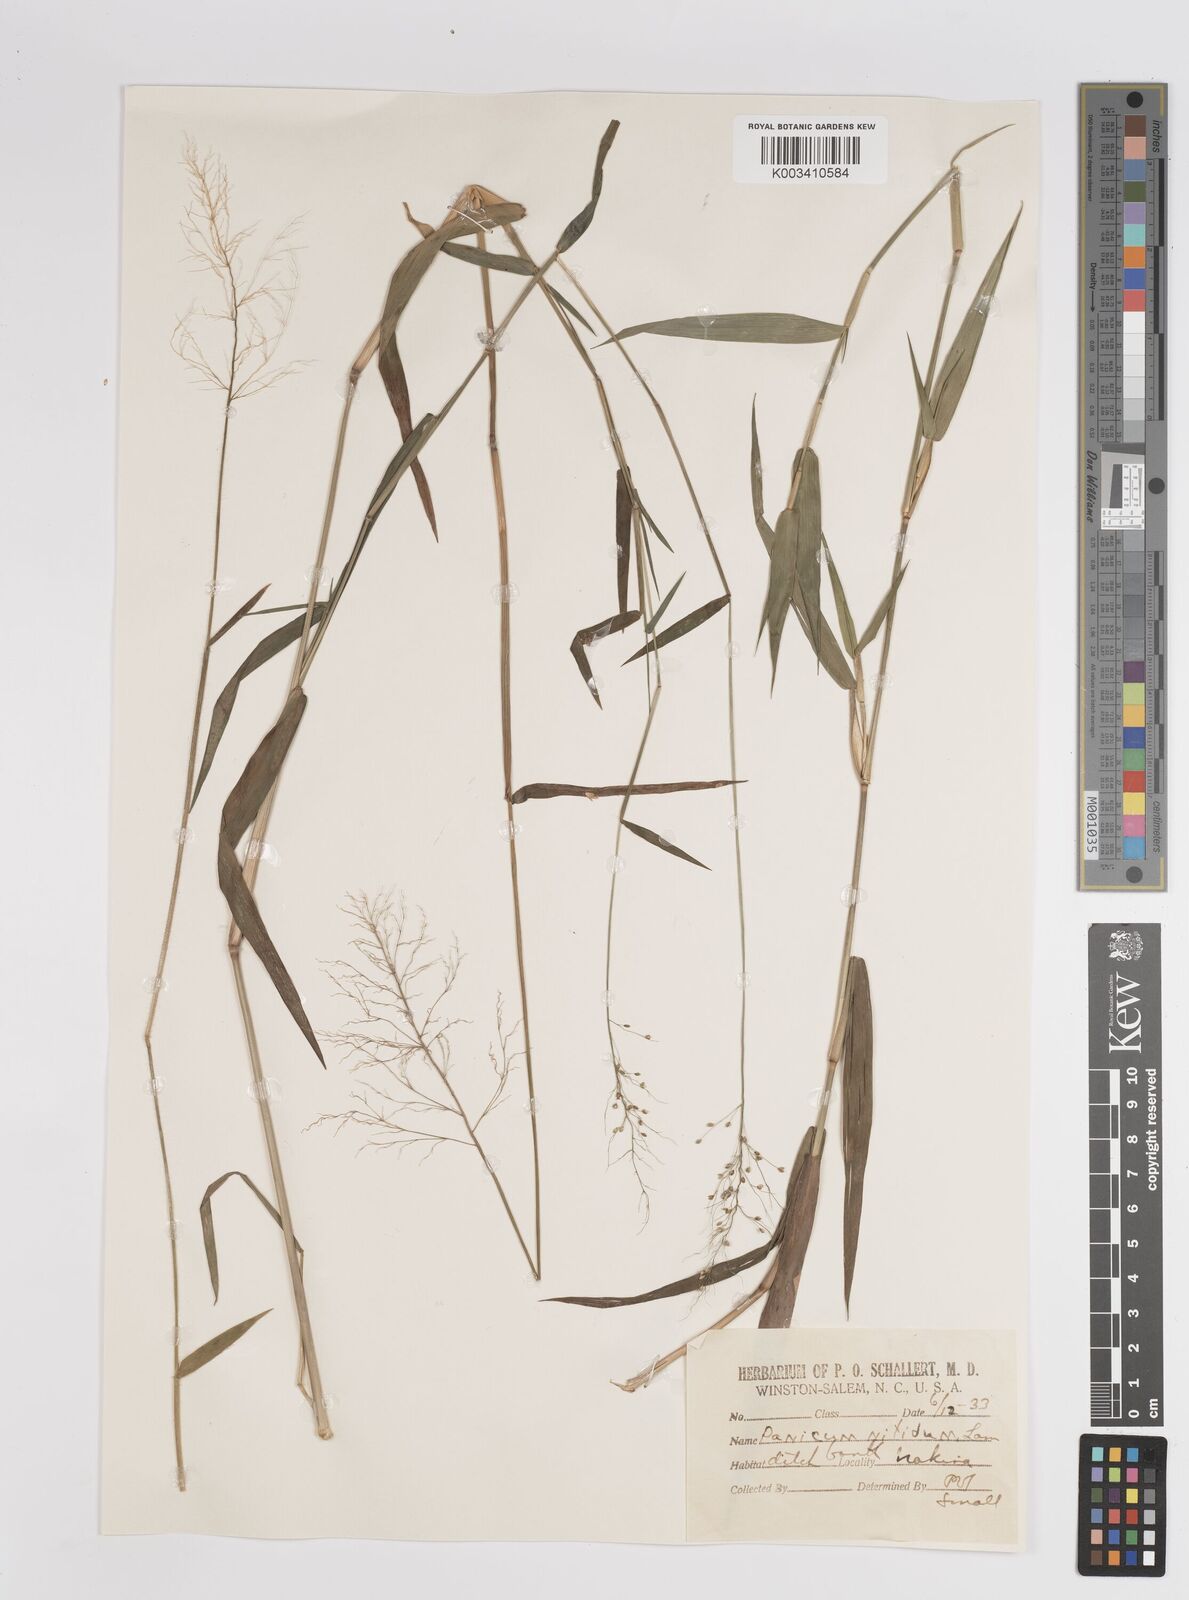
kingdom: Plantae
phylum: Tracheophyta
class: Liliopsida
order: Poales
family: Poaceae
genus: Dichanthelium
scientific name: Dichanthelium mattamuskeetense
